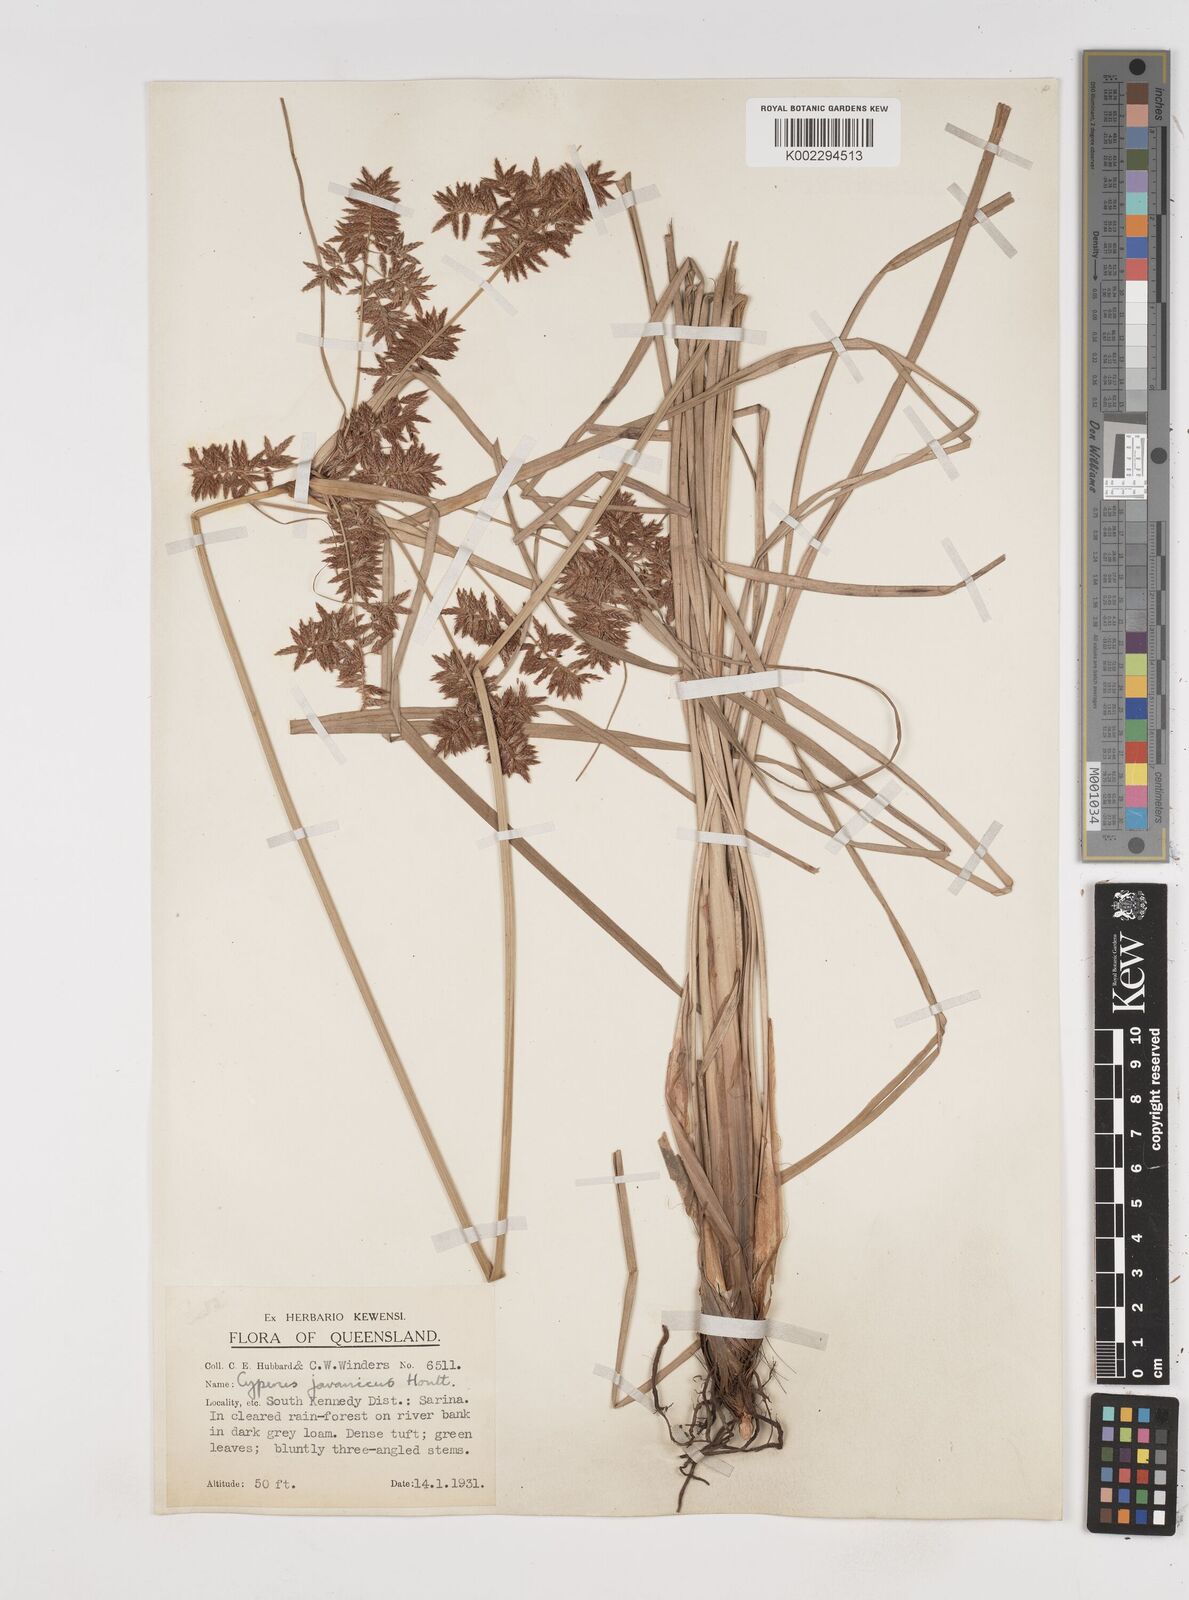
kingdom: Plantae
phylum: Tracheophyta
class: Liliopsida
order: Poales
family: Cyperaceae
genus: Cyperus
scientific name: Cyperus javanicus
